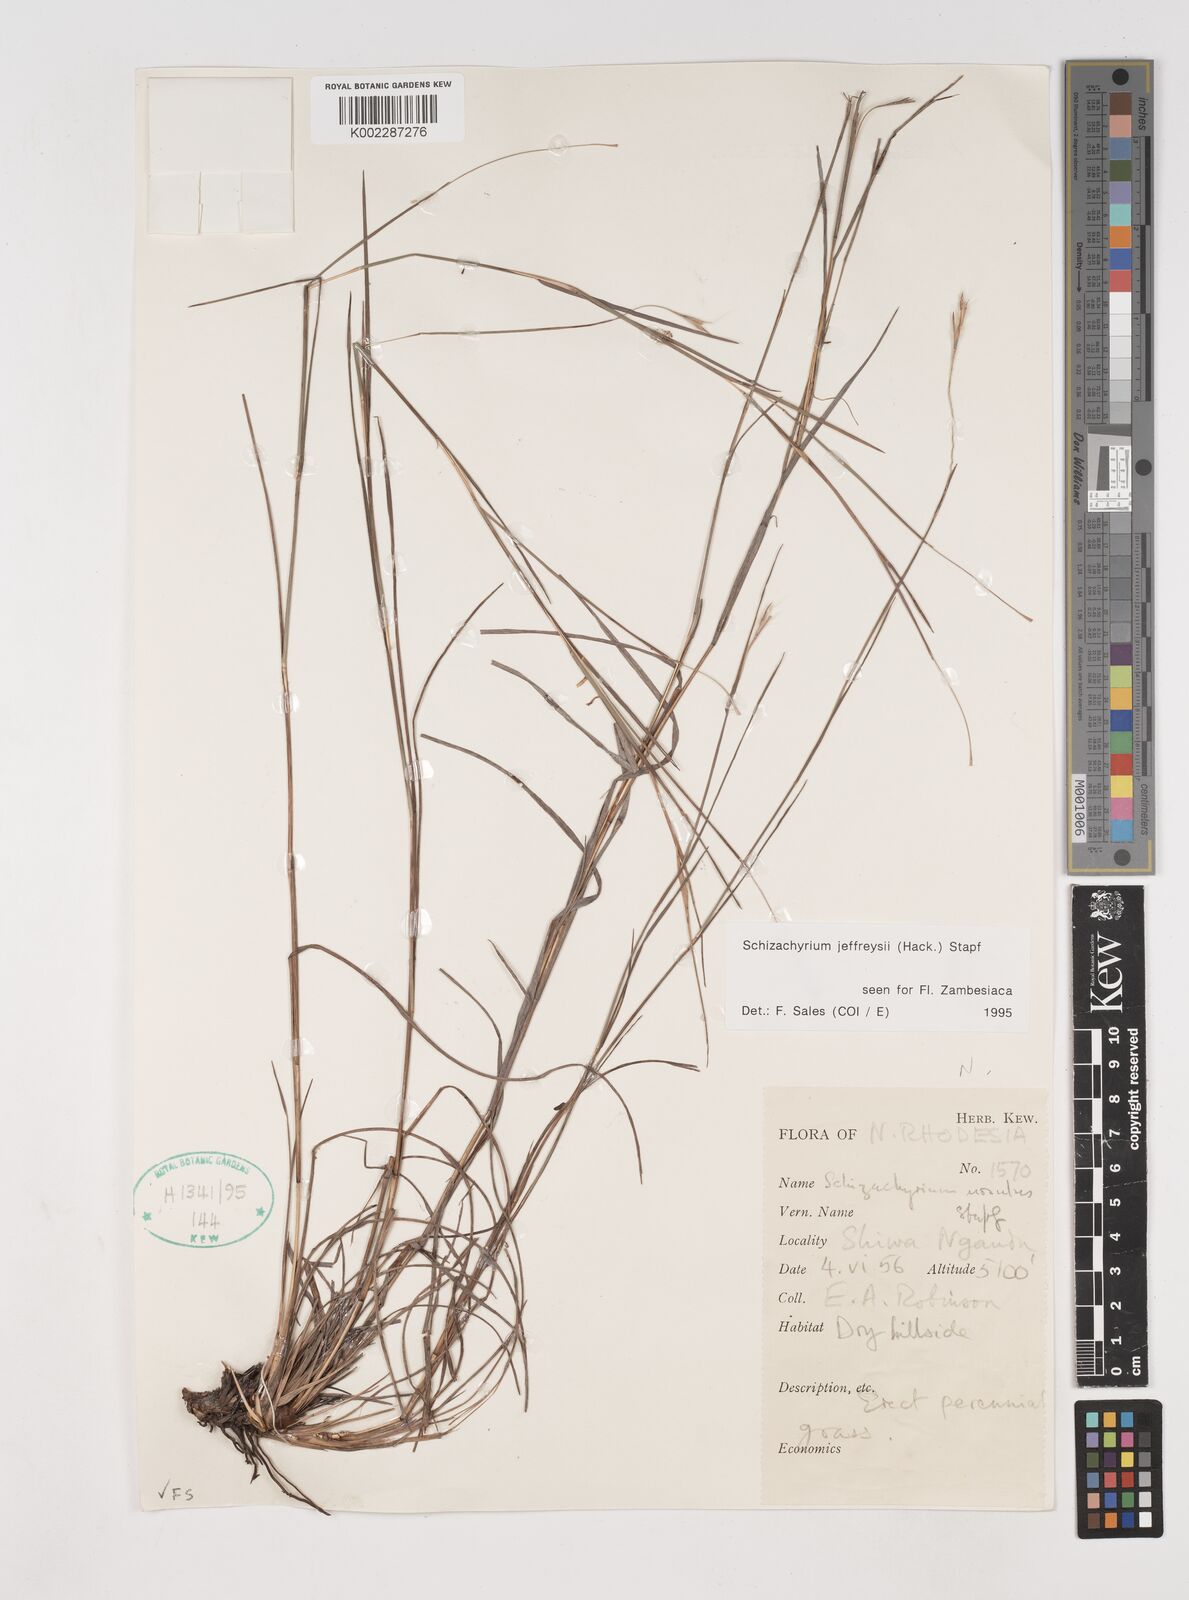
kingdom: Plantae
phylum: Tracheophyta
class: Liliopsida
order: Poales
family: Poaceae
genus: Schizachyrium
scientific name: Schizachyrium jeffreysii
